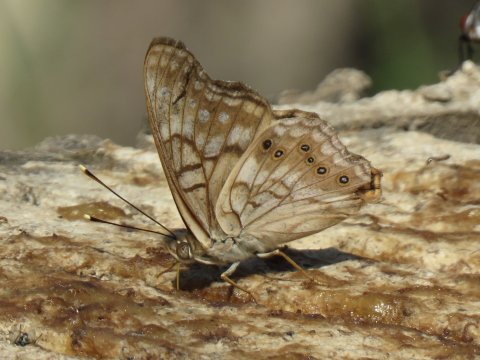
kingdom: Animalia
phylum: Arthropoda
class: Insecta
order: Lepidoptera
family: Nymphalidae
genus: Asterocampa
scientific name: Asterocampa clyton
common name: Tawny Emperor
